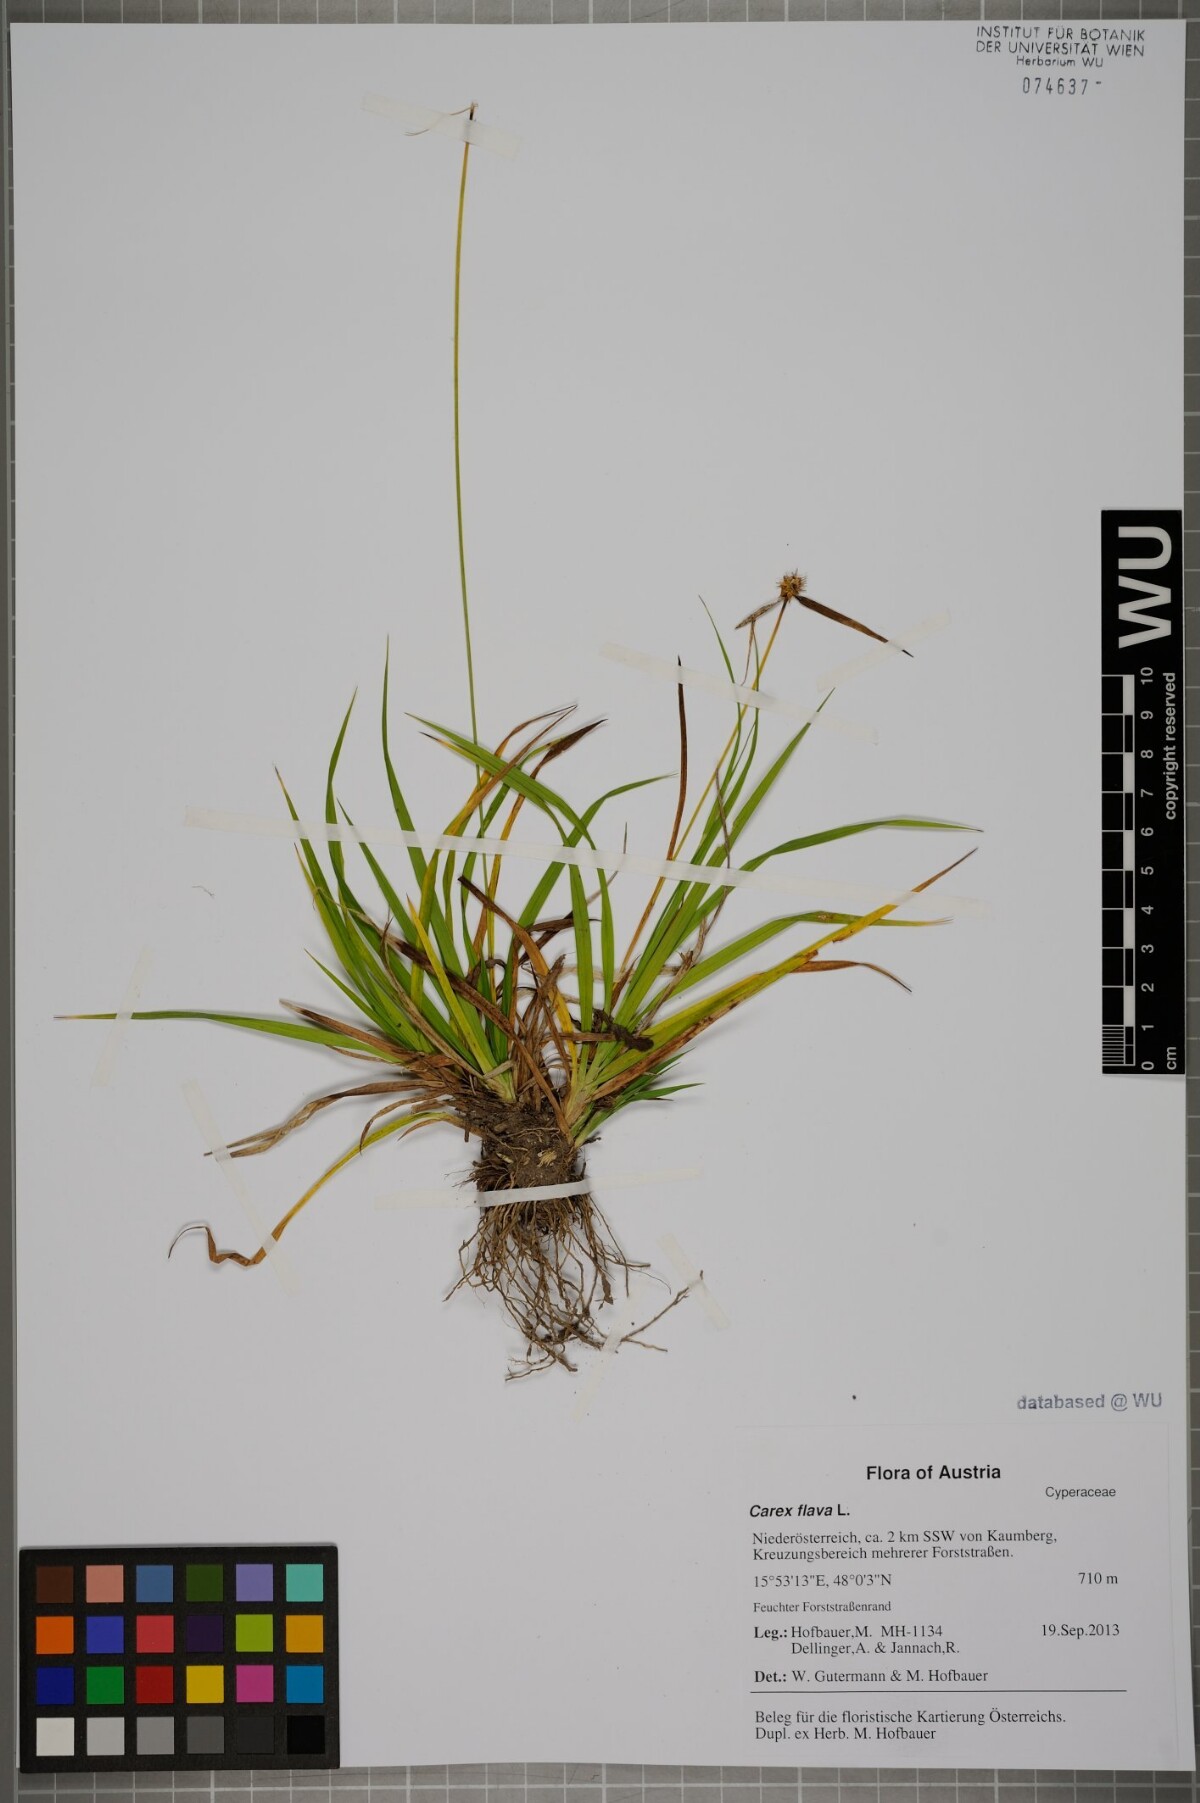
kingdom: Plantae
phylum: Tracheophyta
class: Liliopsida
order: Poales
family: Cyperaceae
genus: Carex
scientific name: Carex flava
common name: Large yellow-sedge
